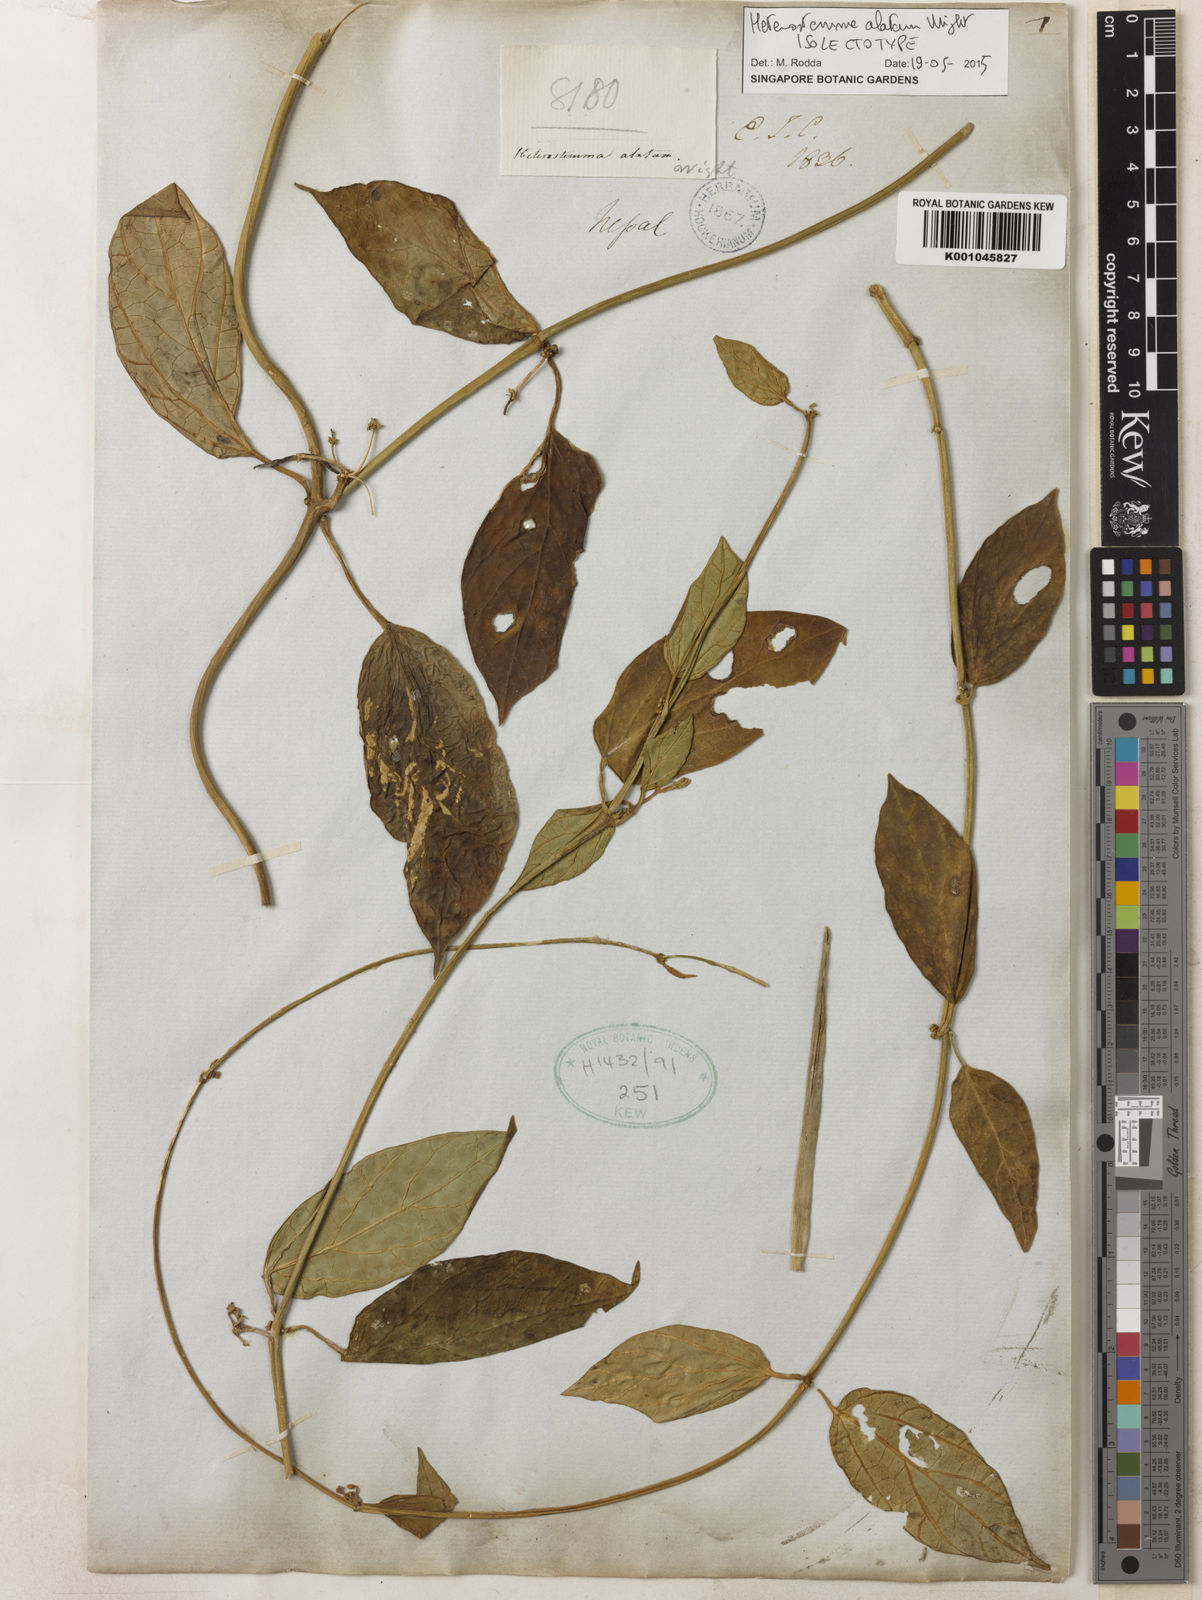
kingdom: Plantae
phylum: Tracheophyta
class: Magnoliopsida
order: Gentianales
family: Apocynaceae
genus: Heterostemma
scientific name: Heterostemma alatum
